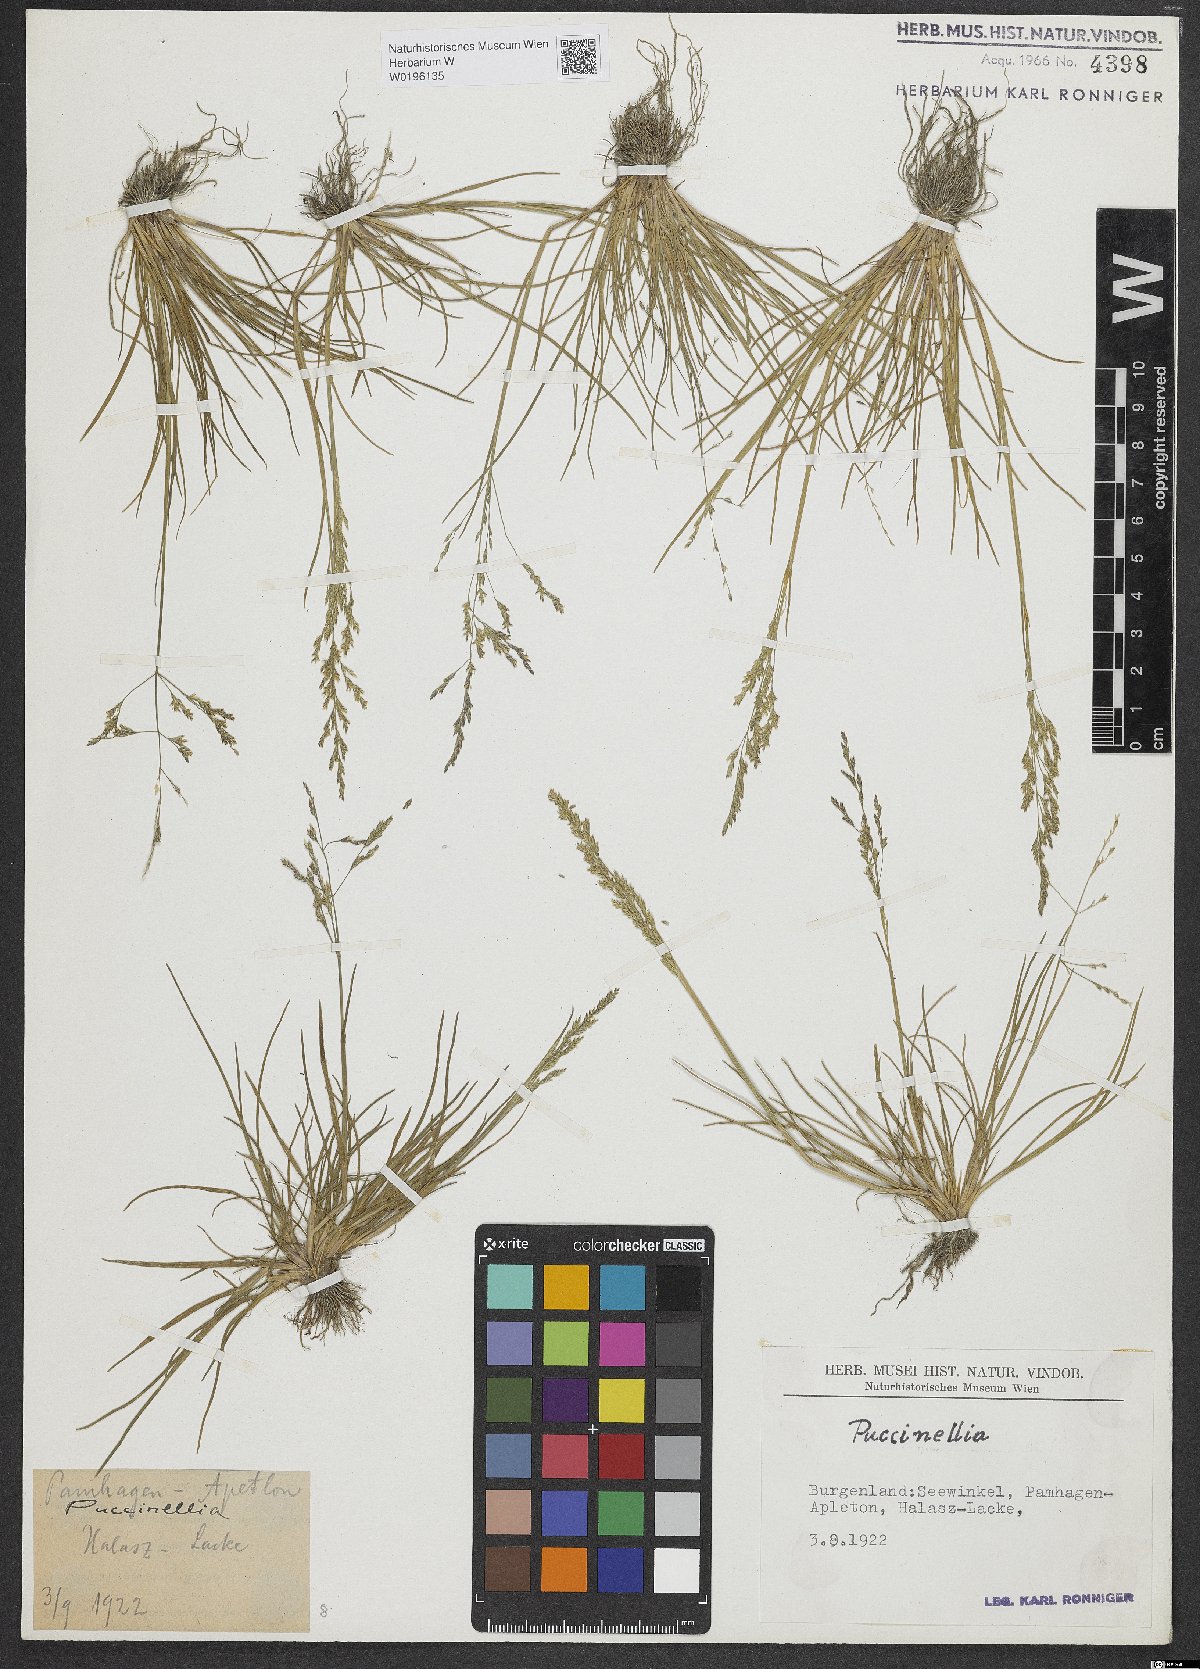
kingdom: Plantae
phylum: Tracheophyta
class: Liliopsida
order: Poales
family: Poaceae
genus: Puccinellia
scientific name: Puccinellia
